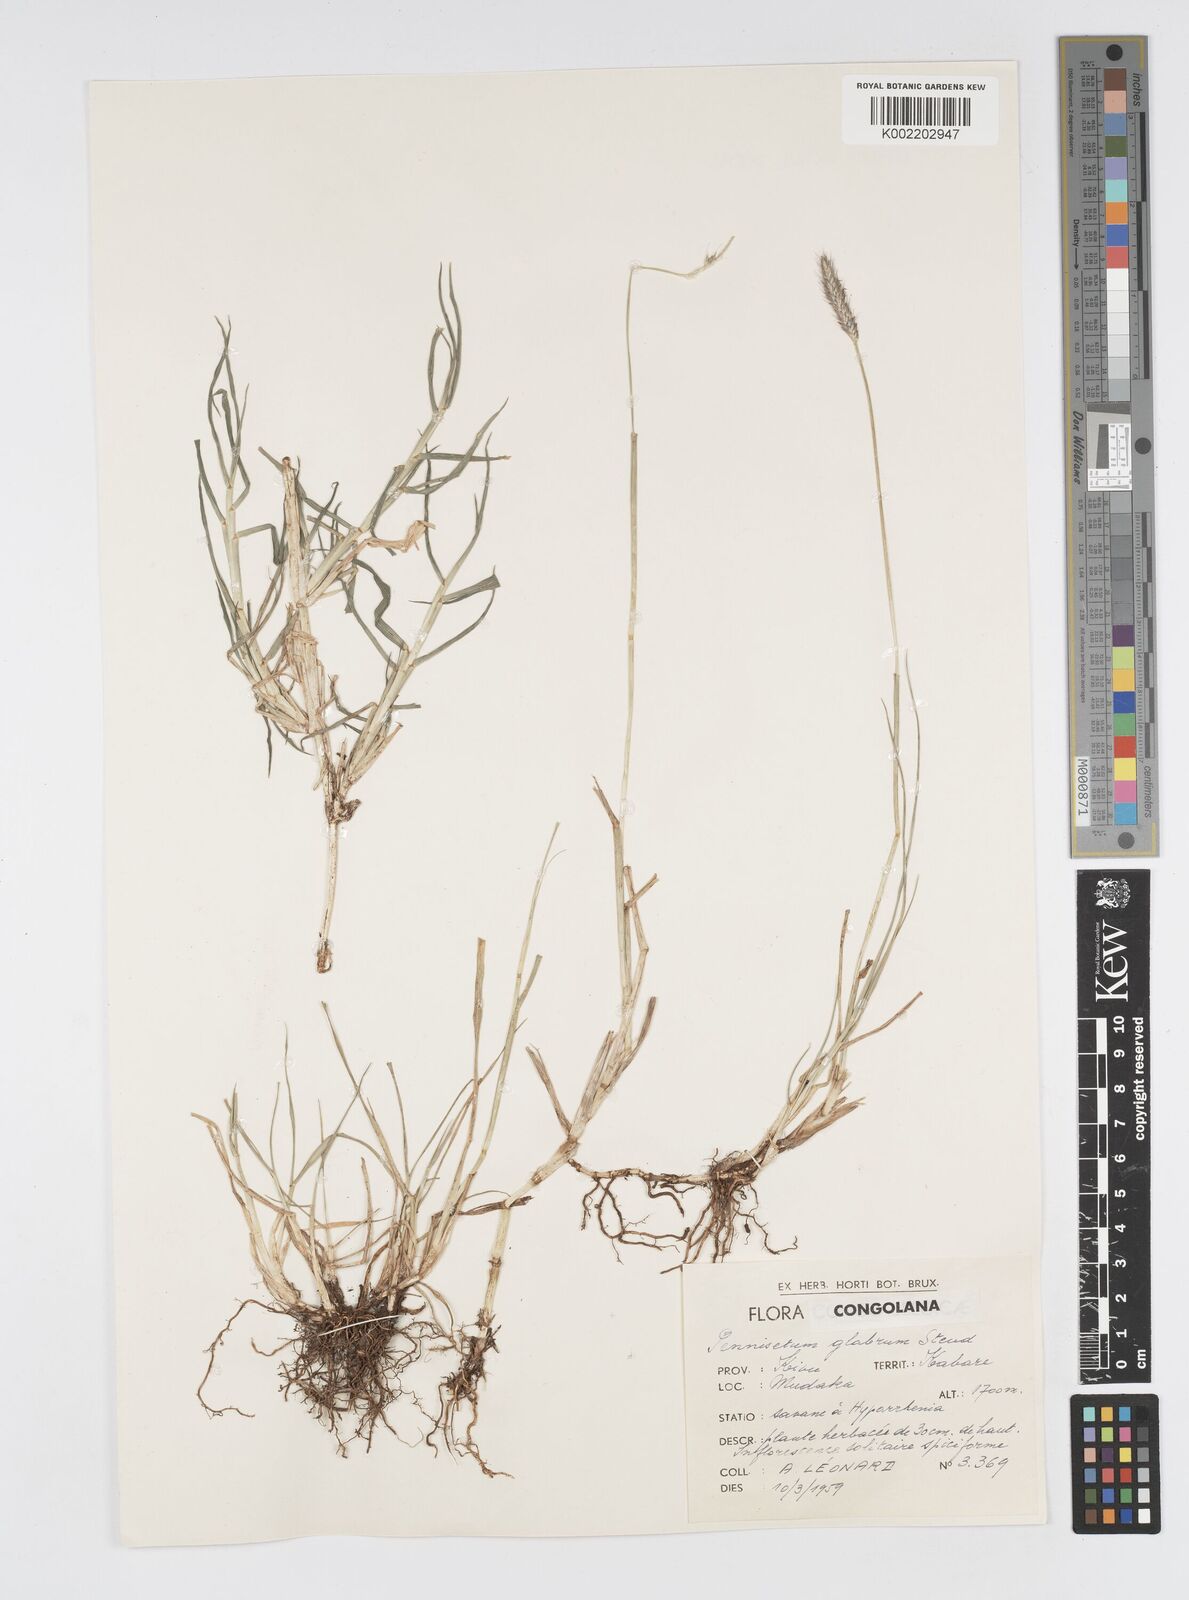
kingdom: Plantae
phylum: Tracheophyta
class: Liliopsida
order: Poales
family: Poaceae
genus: Cenchrus
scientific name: Cenchrus geniculatus
